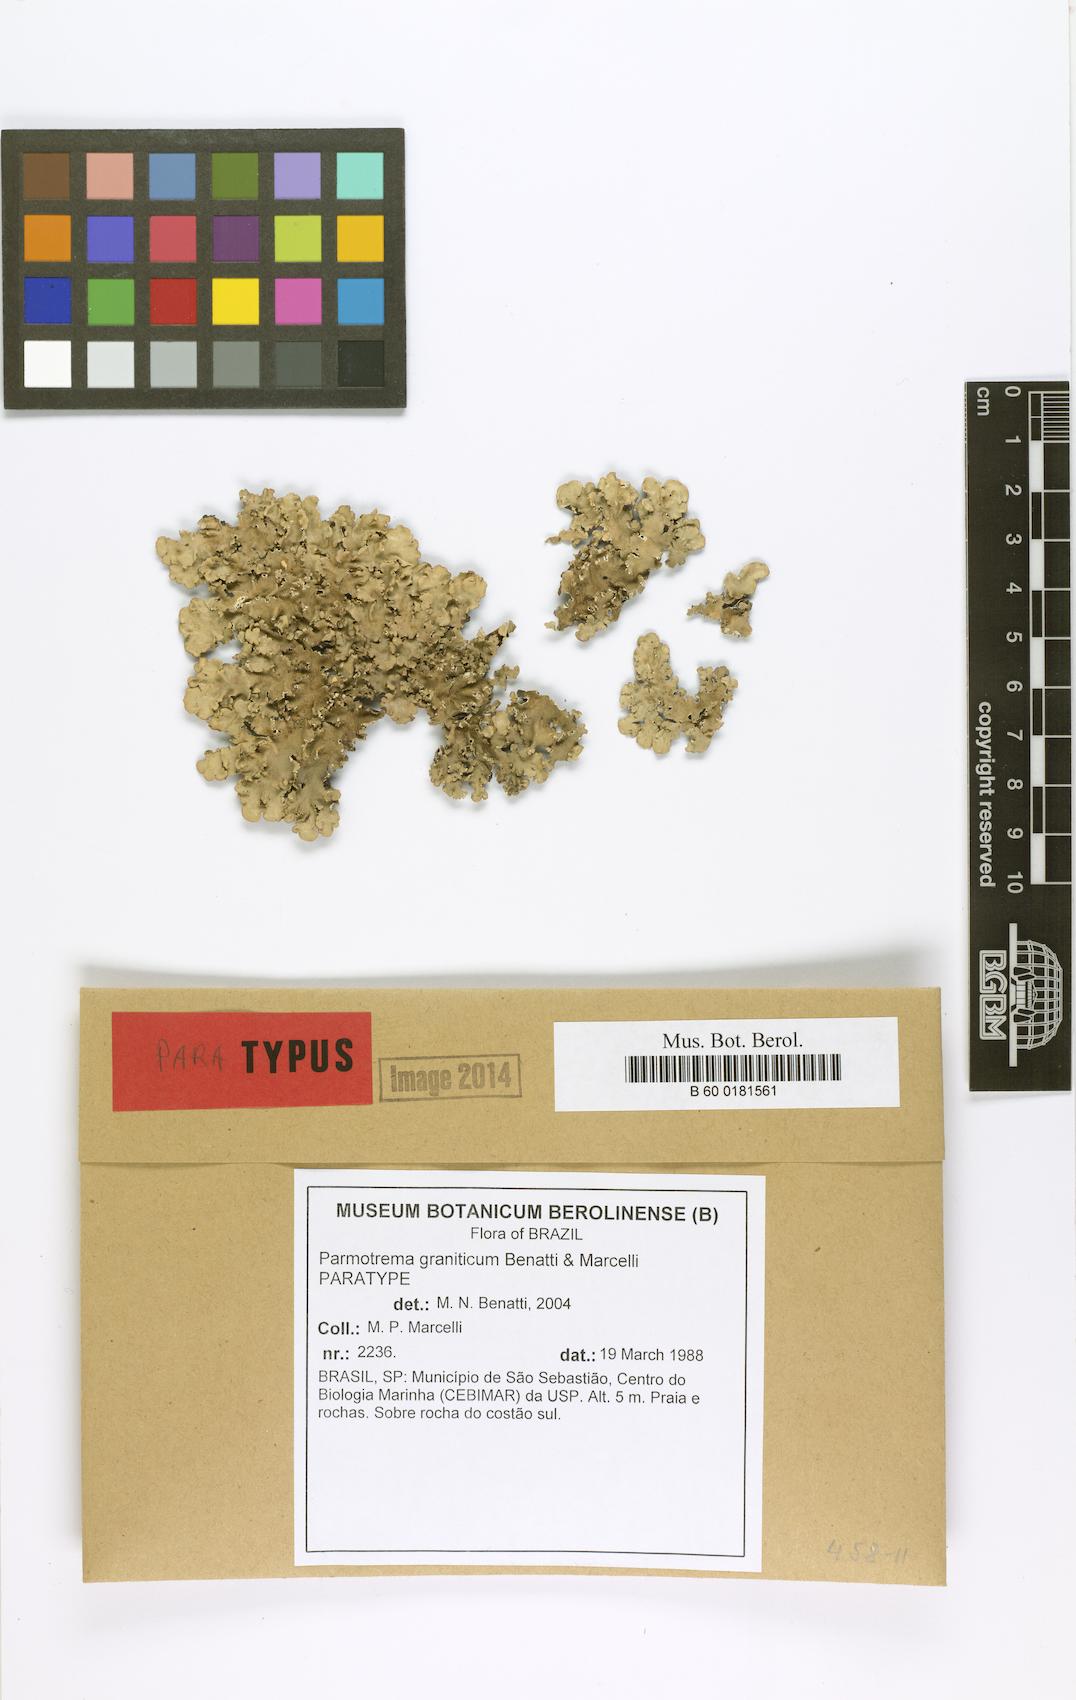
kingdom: Fungi
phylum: Ascomycota
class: Lecanoromycetes
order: Lecanorales
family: Parmeliaceae
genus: Parmotrema
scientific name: Parmotrema graniticum
